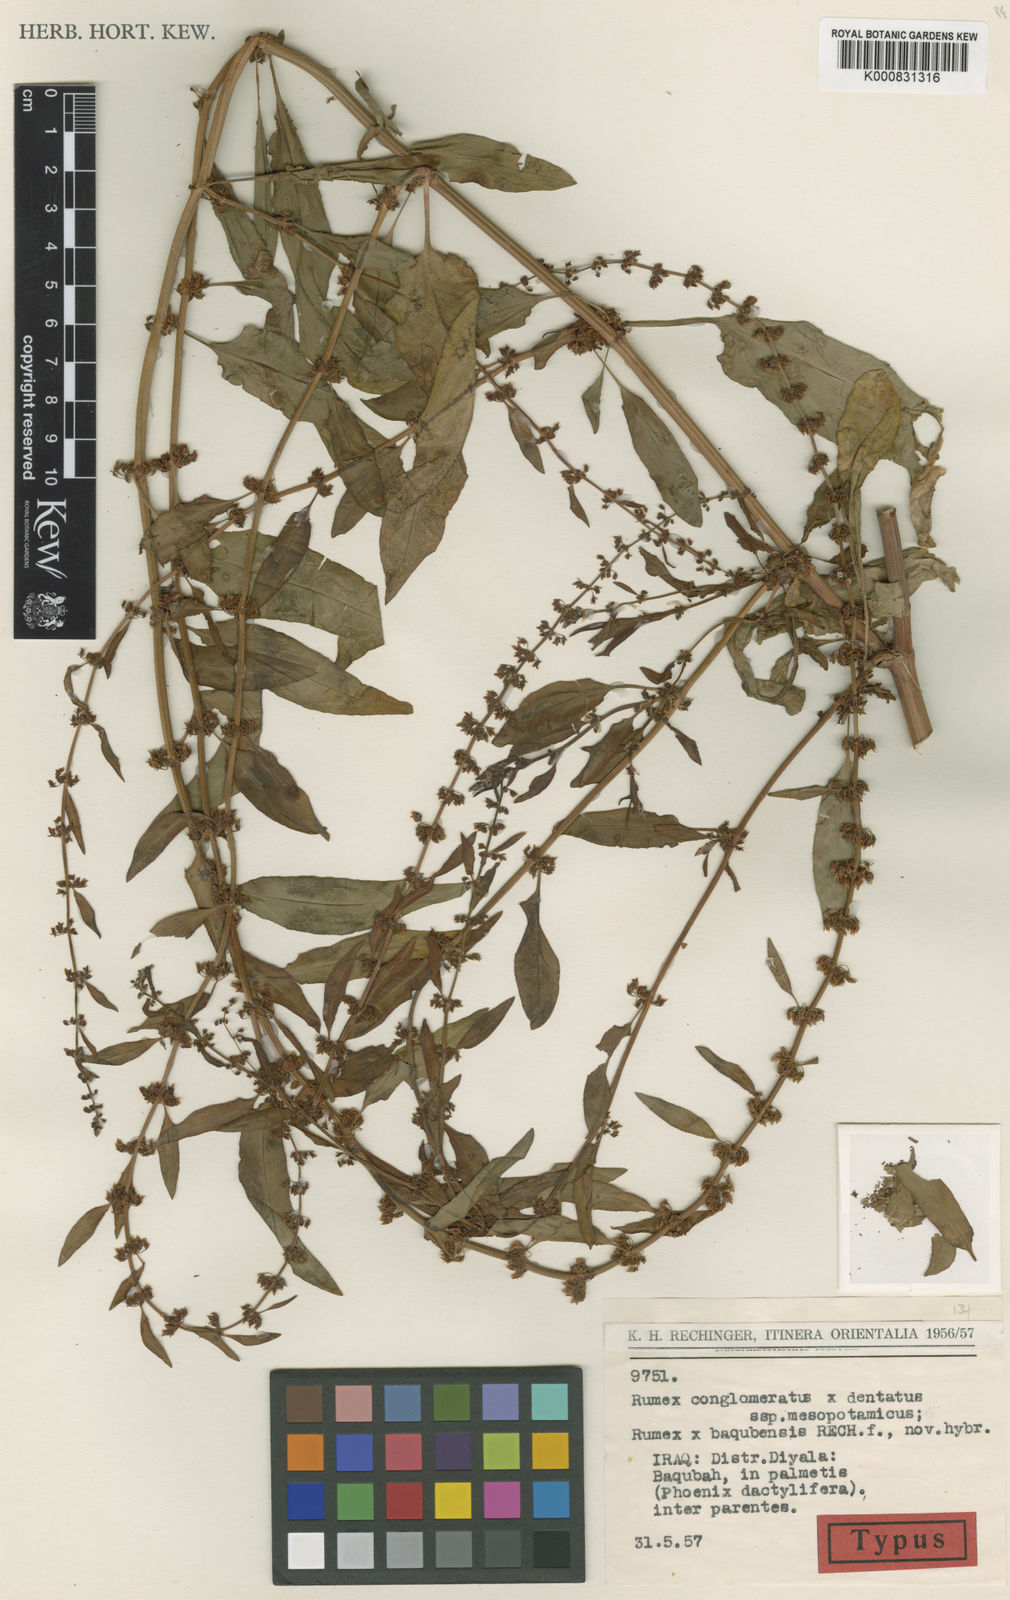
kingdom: Plantae
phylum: Tracheophyta
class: Magnoliopsida
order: Caryophyllales
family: Polygonaceae
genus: Rumex
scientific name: Rumex
